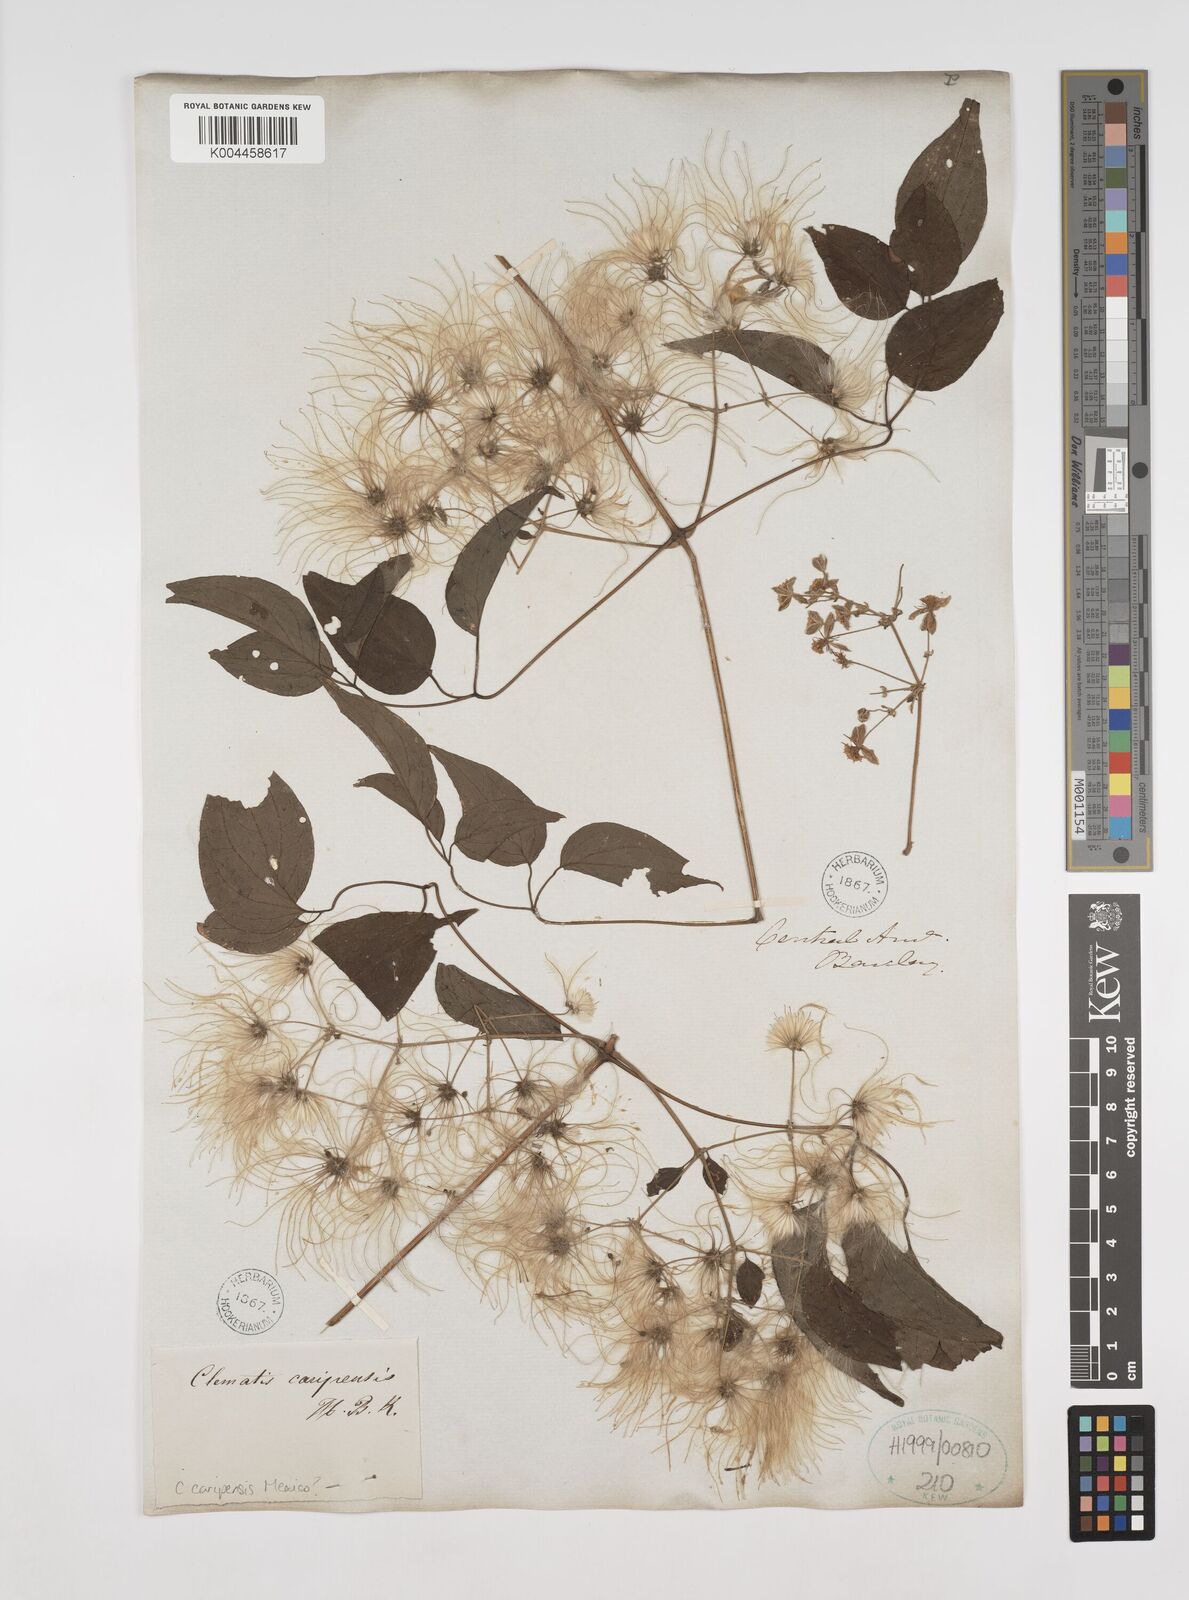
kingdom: Plantae
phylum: Tracheophyta
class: Magnoliopsida
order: Ranunculales
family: Ranunculaceae
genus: Clematis
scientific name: Clematis guadeloupae
